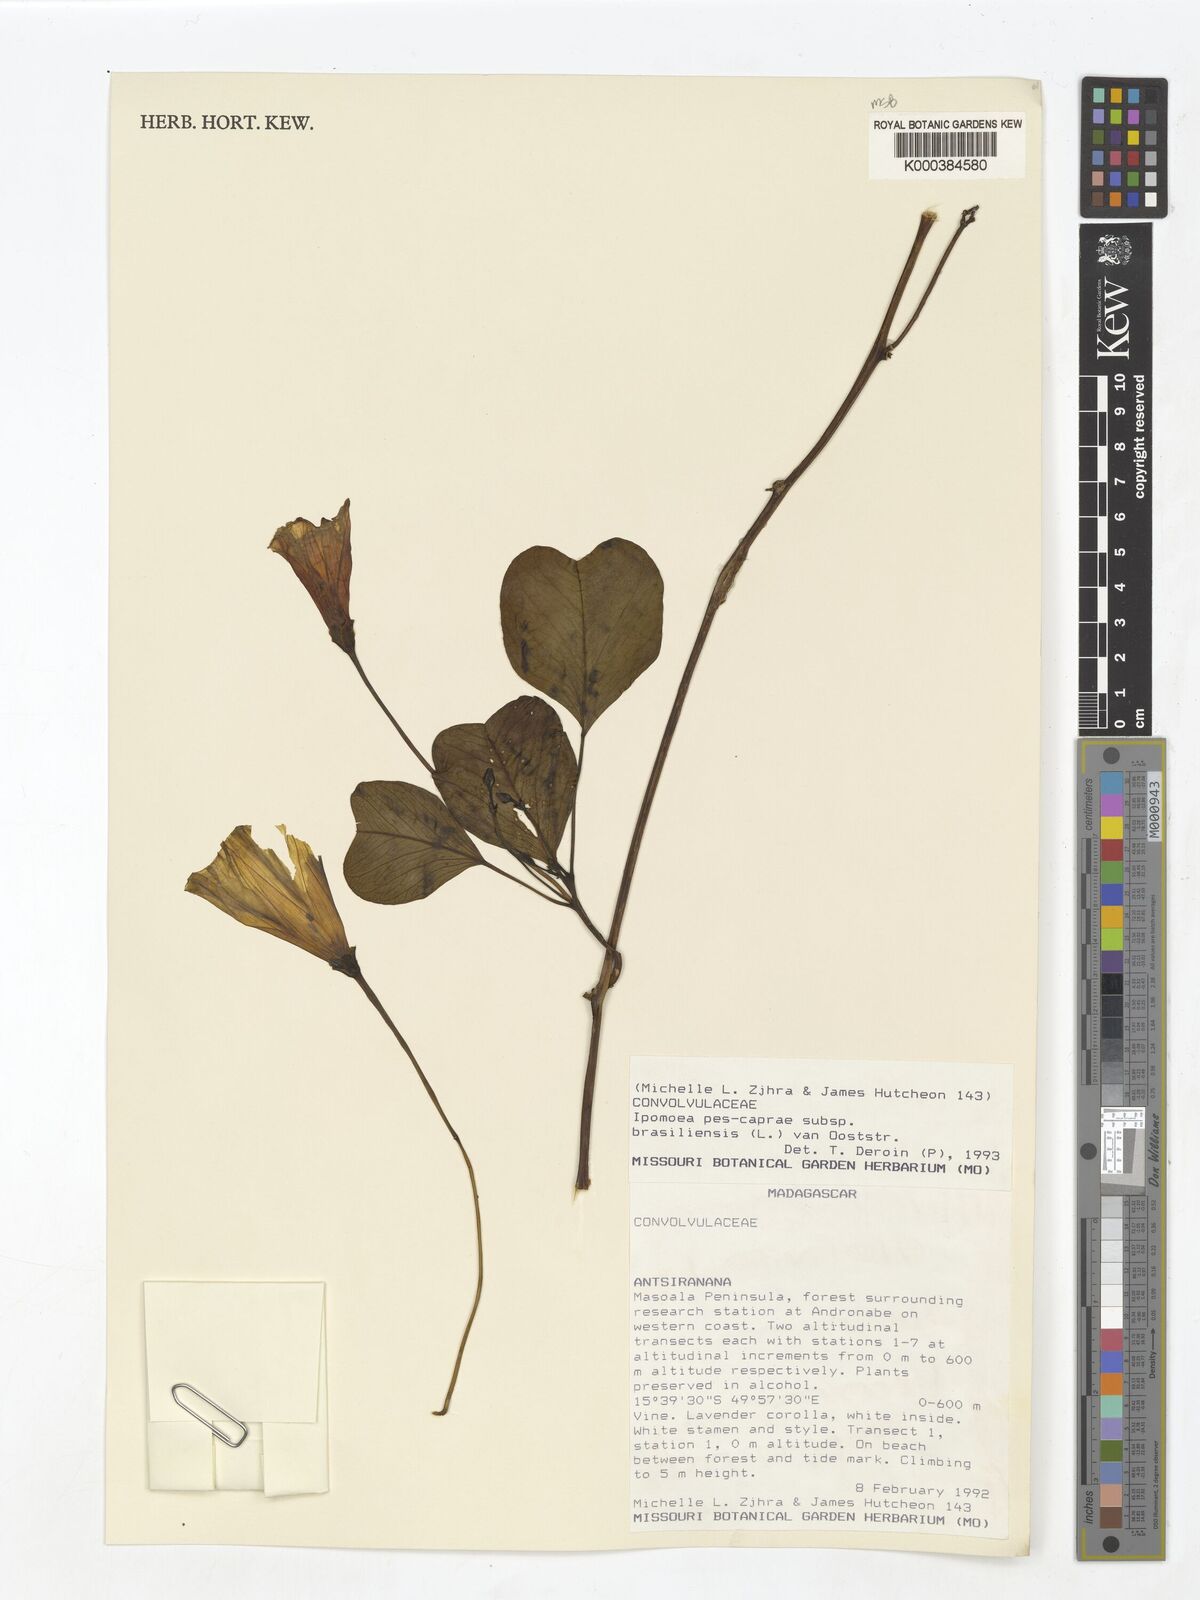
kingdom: Plantae
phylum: Tracheophyta
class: Magnoliopsida
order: Solanales
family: Convolvulaceae
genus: Ipomoea
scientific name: Ipomoea pes-caprae
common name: Beach morning glory
